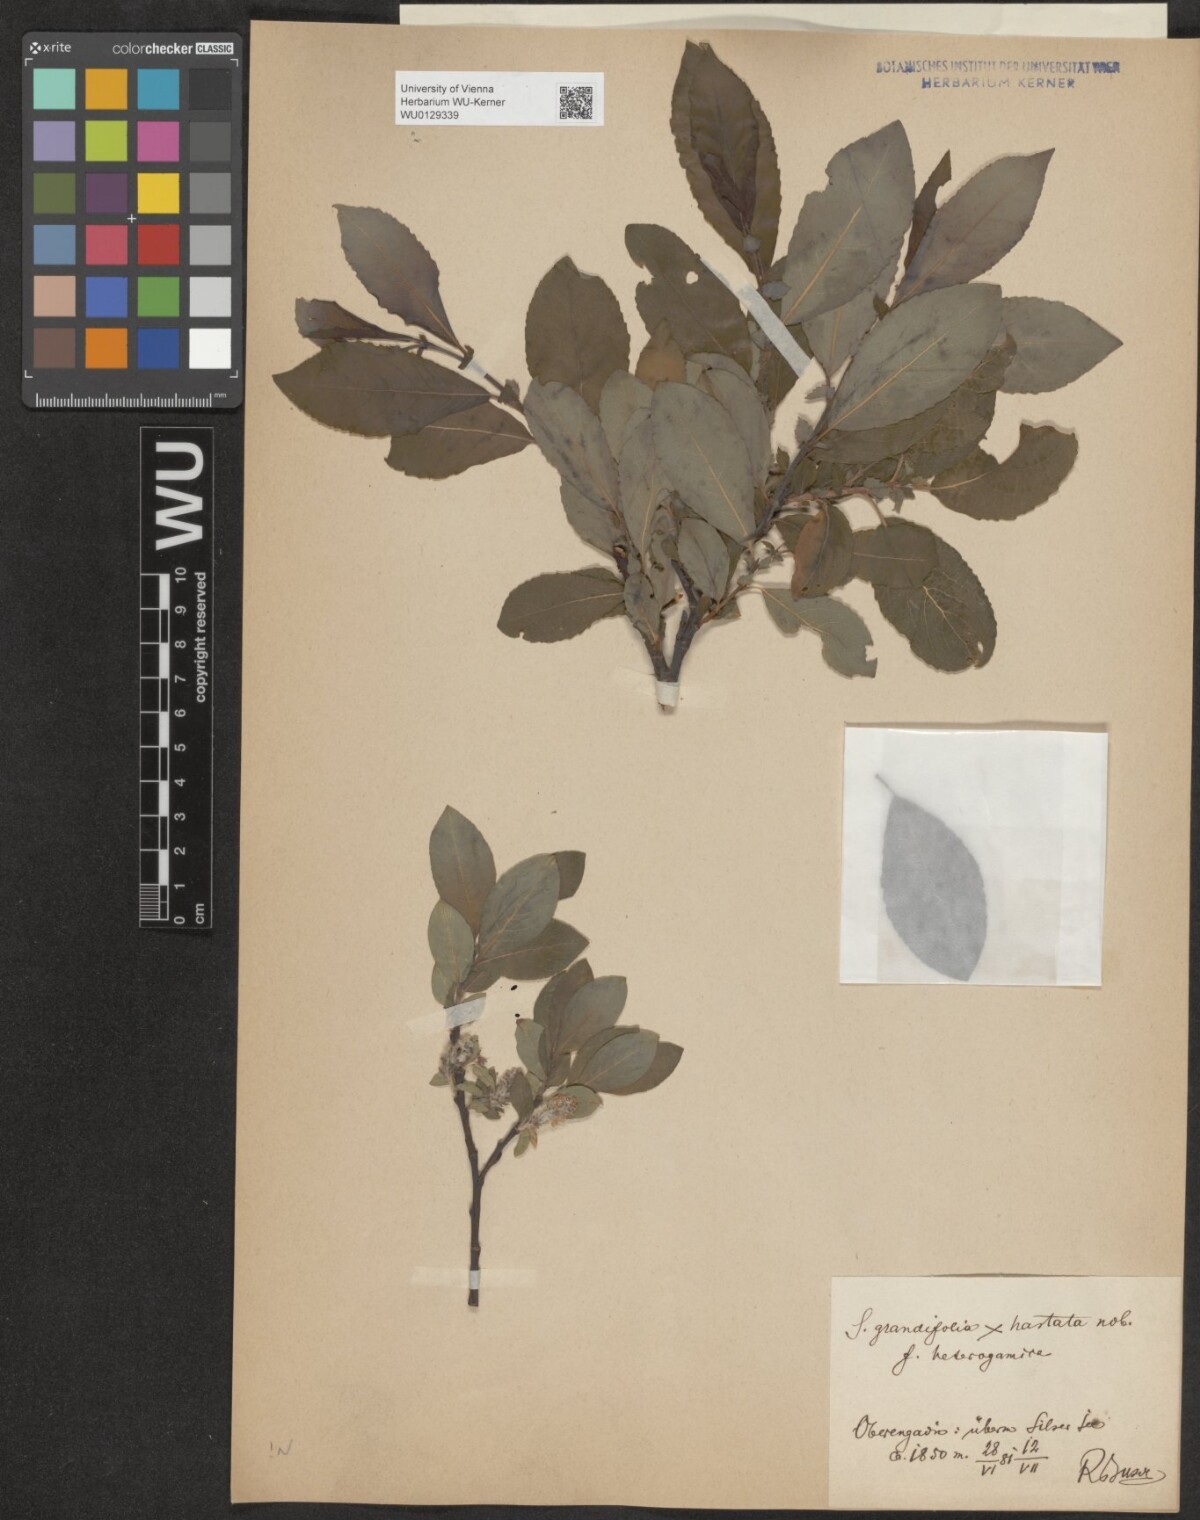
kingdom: Plantae
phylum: Tracheophyta
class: Magnoliopsida
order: Malpighiales
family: Salicaceae
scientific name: Salicaceae
